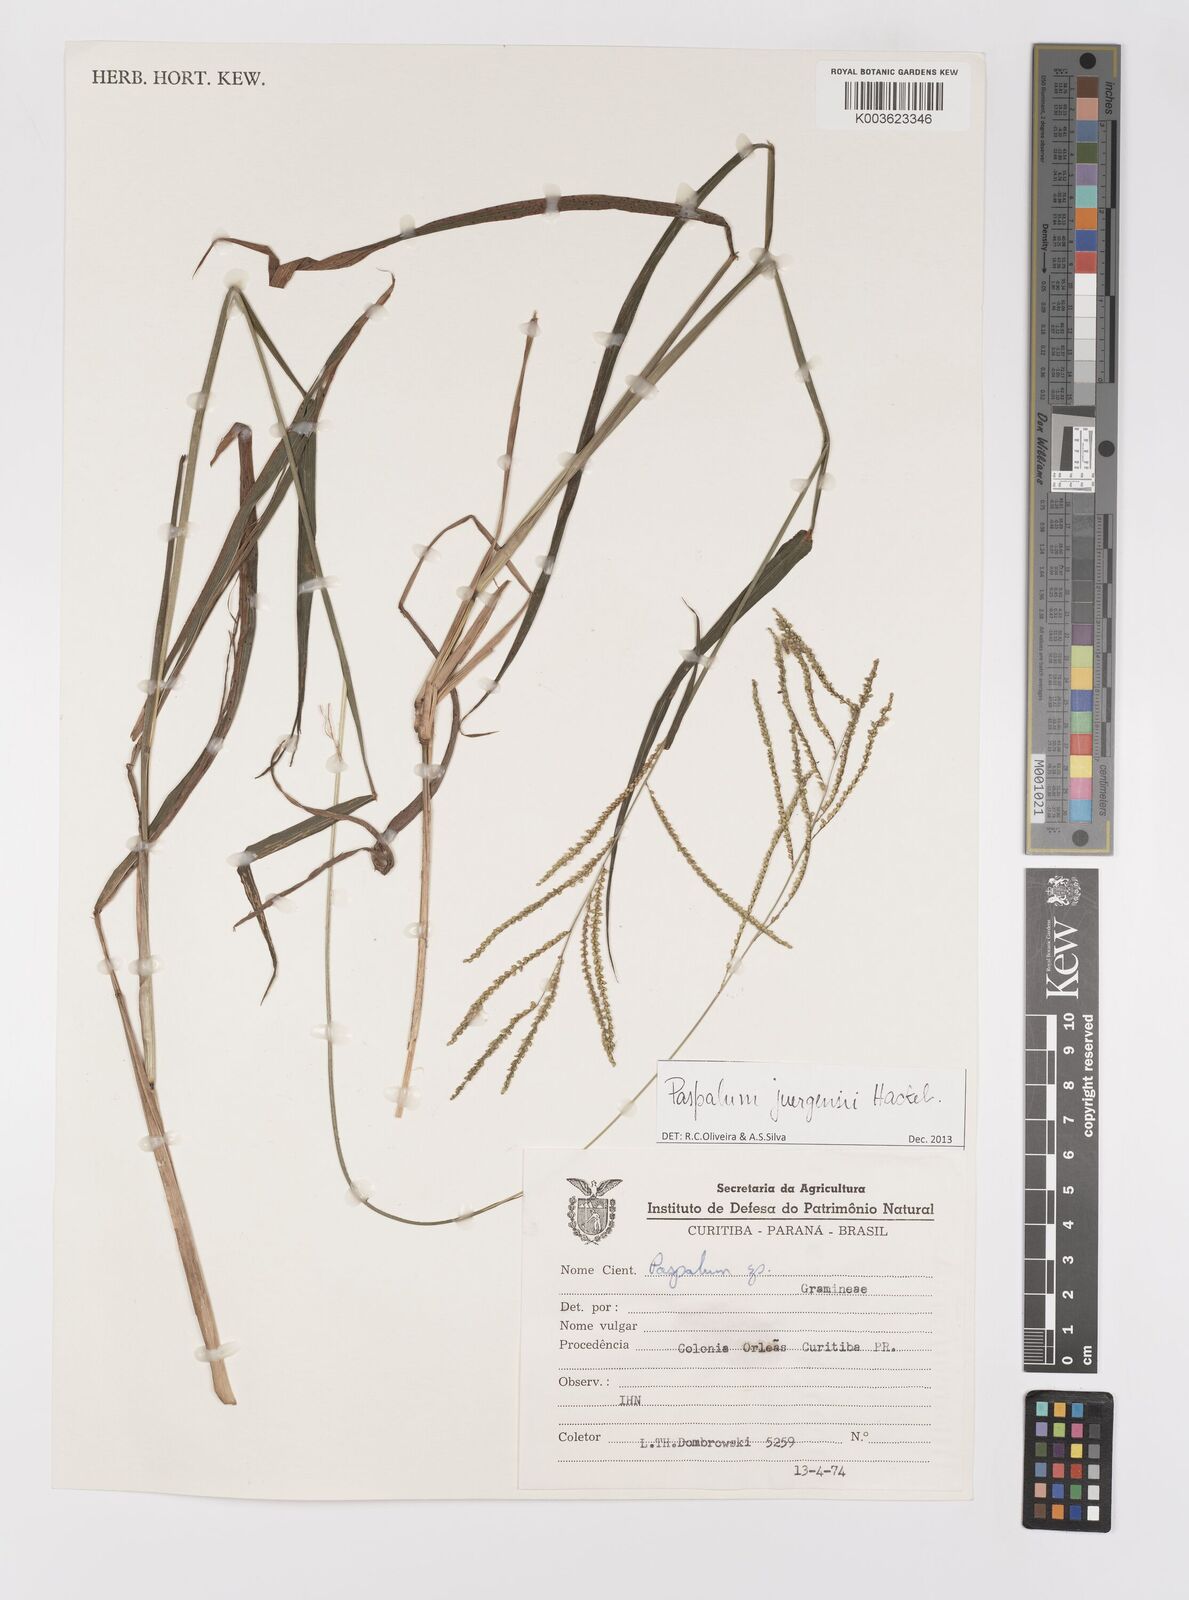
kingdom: Plantae
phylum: Tracheophyta
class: Liliopsida
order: Poales
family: Poaceae
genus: Paspalum
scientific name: Paspalum juergensii
